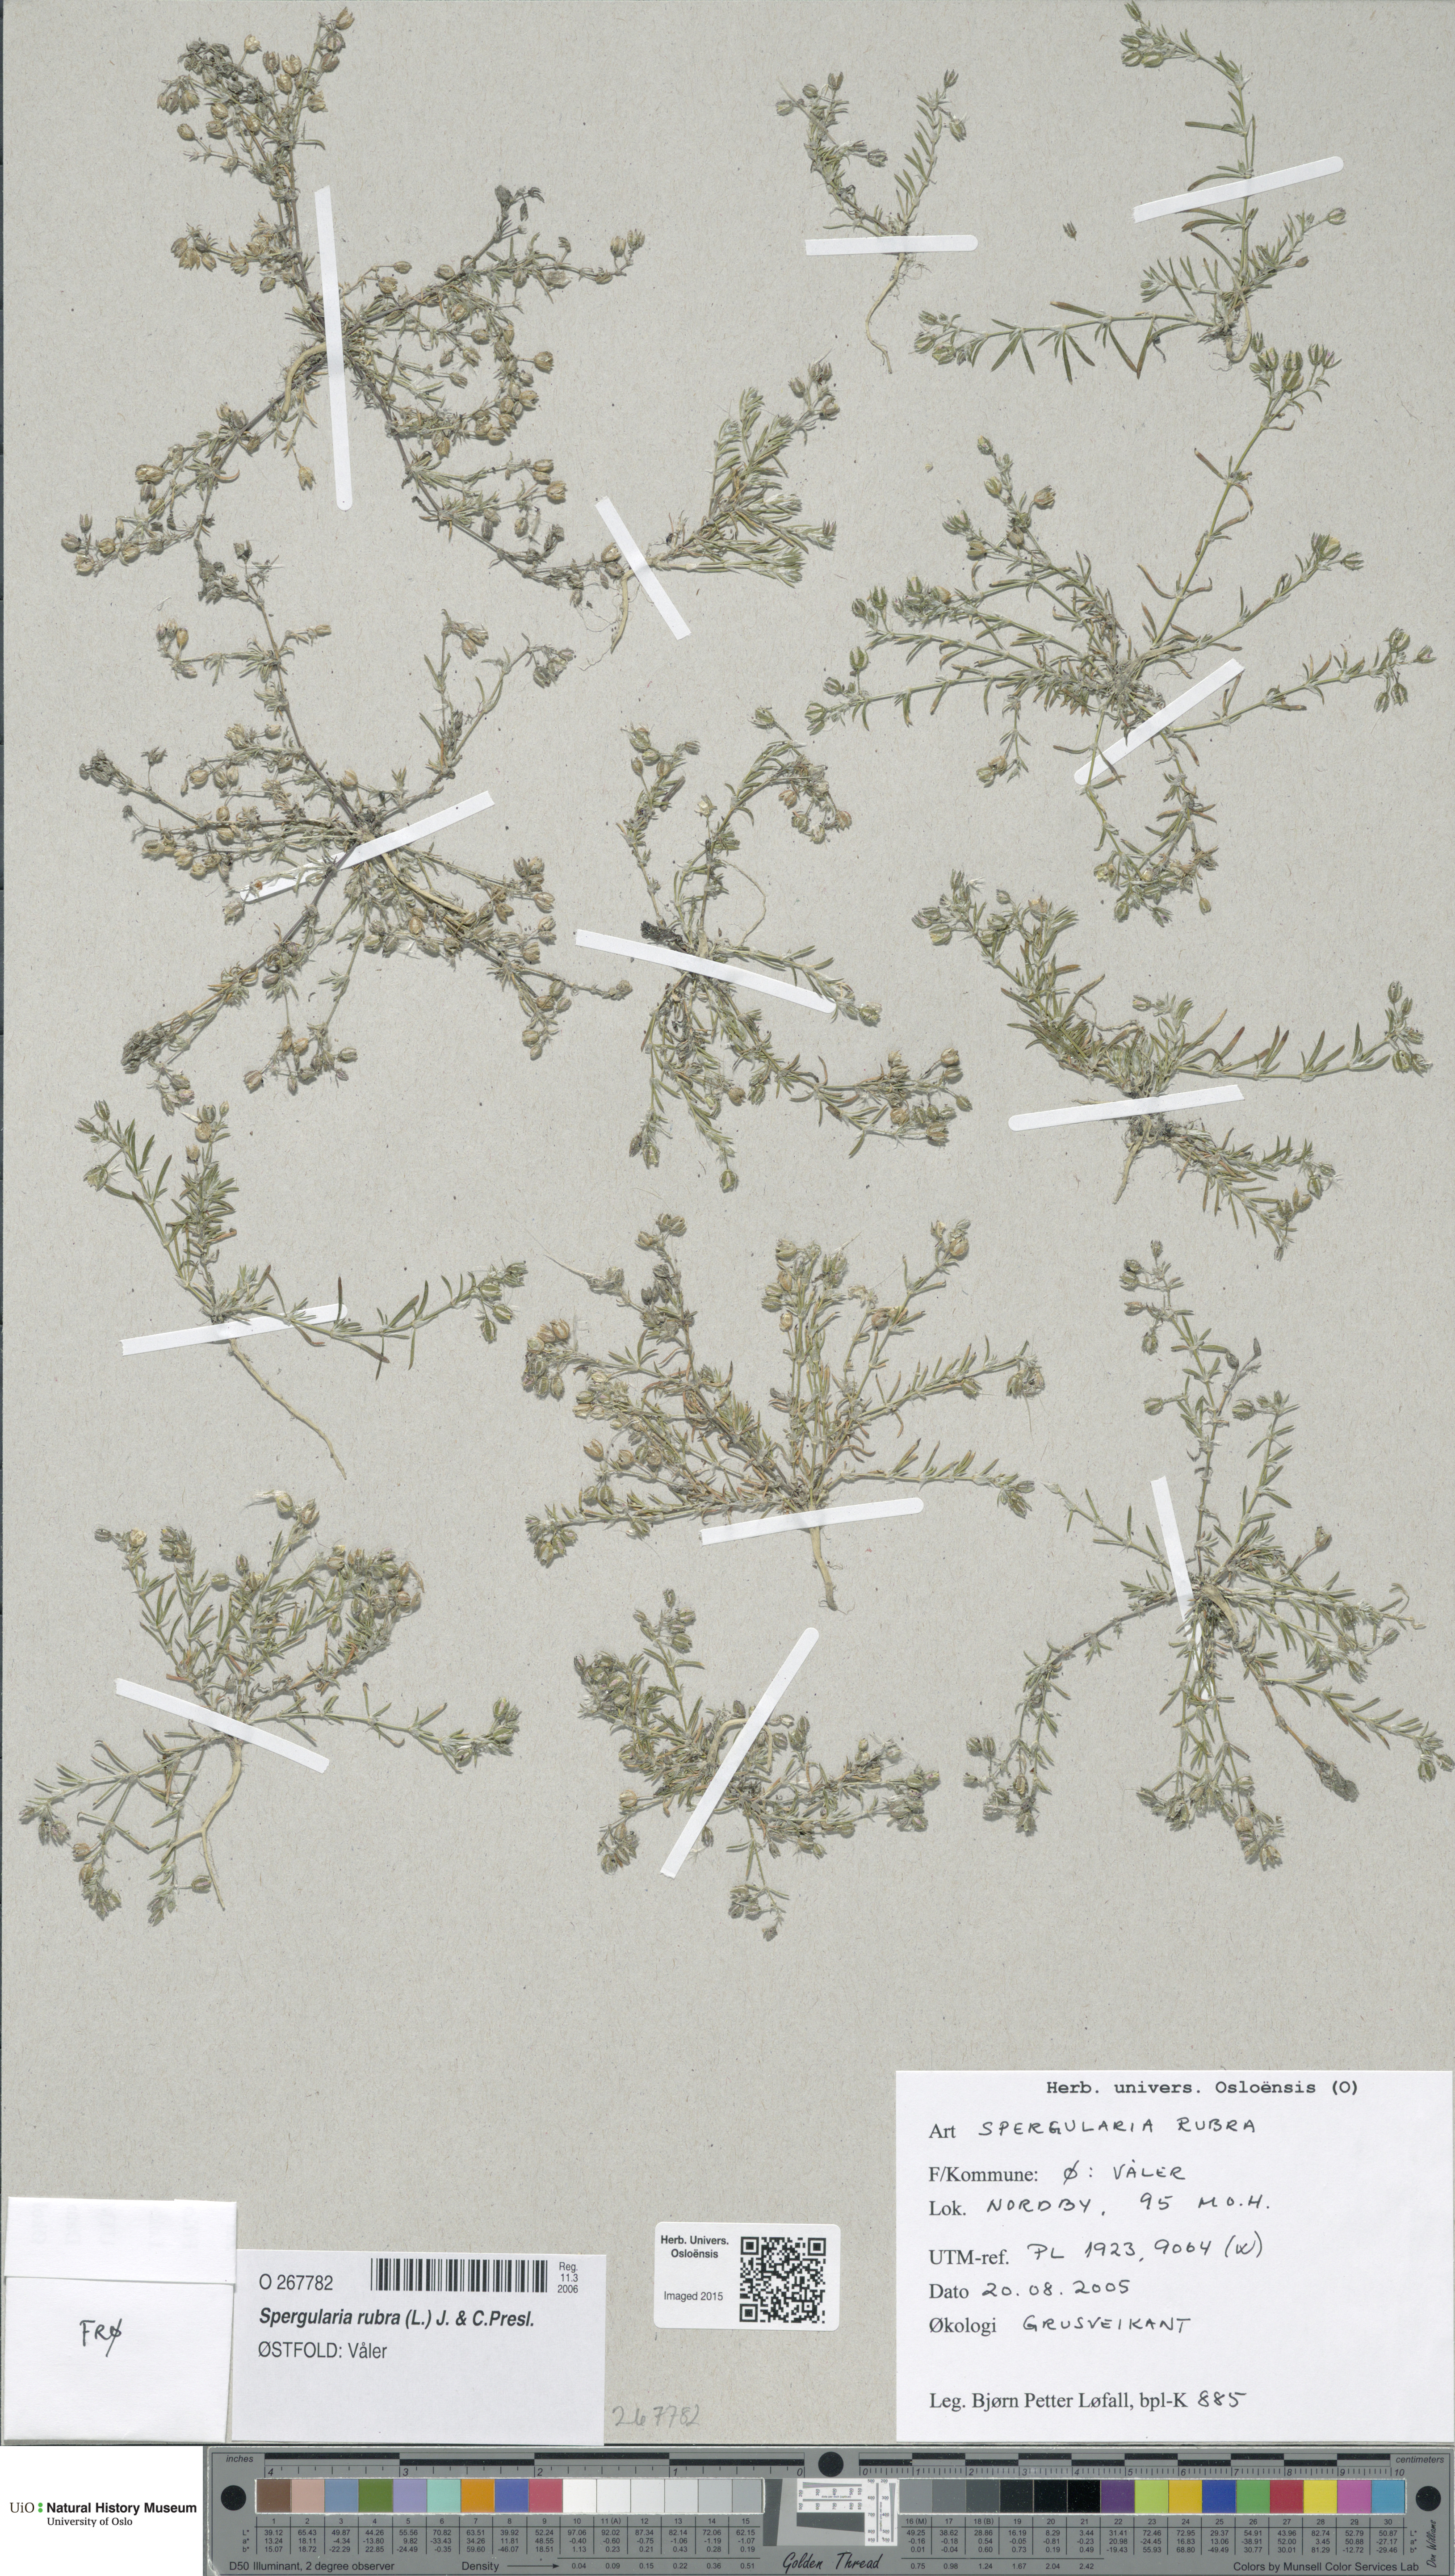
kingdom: Plantae
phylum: Tracheophyta
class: Magnoliopsida
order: Caryophyllales
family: Caryophyllaceae
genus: Spergularia
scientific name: Spergularia rubra
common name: Red sand-spurrey
